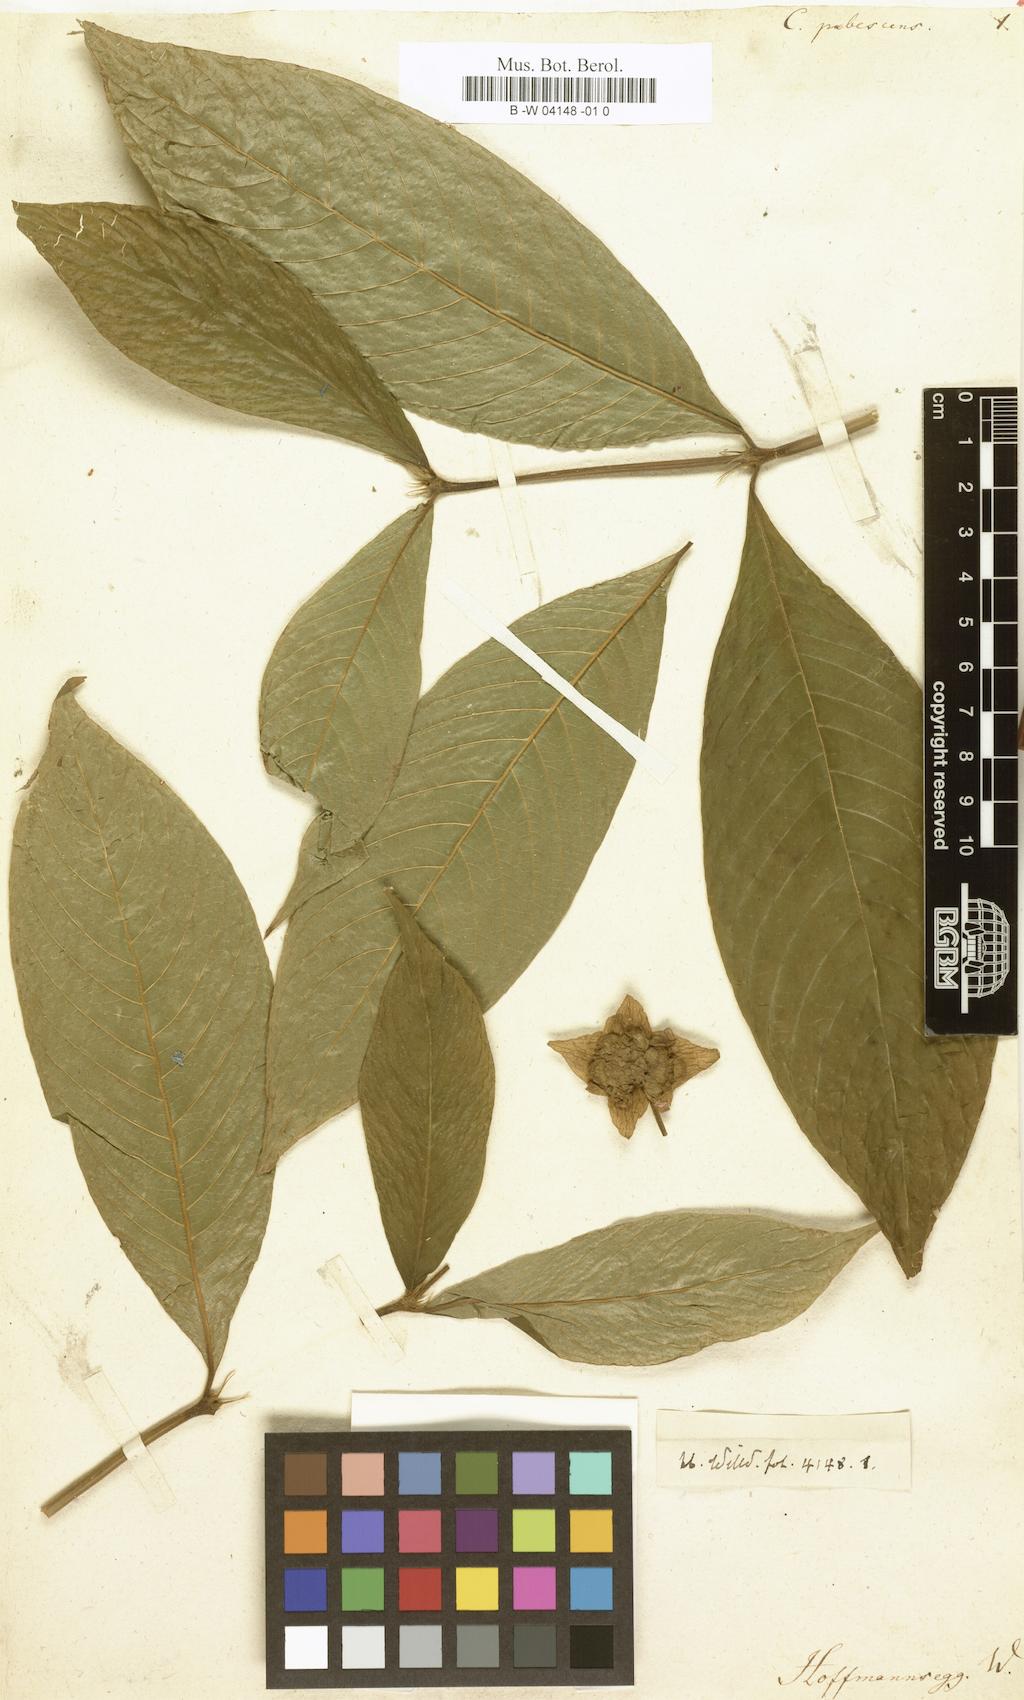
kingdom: Plantae
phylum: Tracheophyta
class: Magnoliopsida
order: Gentianales
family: Rubiaceae
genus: Palicourea
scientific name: Palicourea bracteocardia
